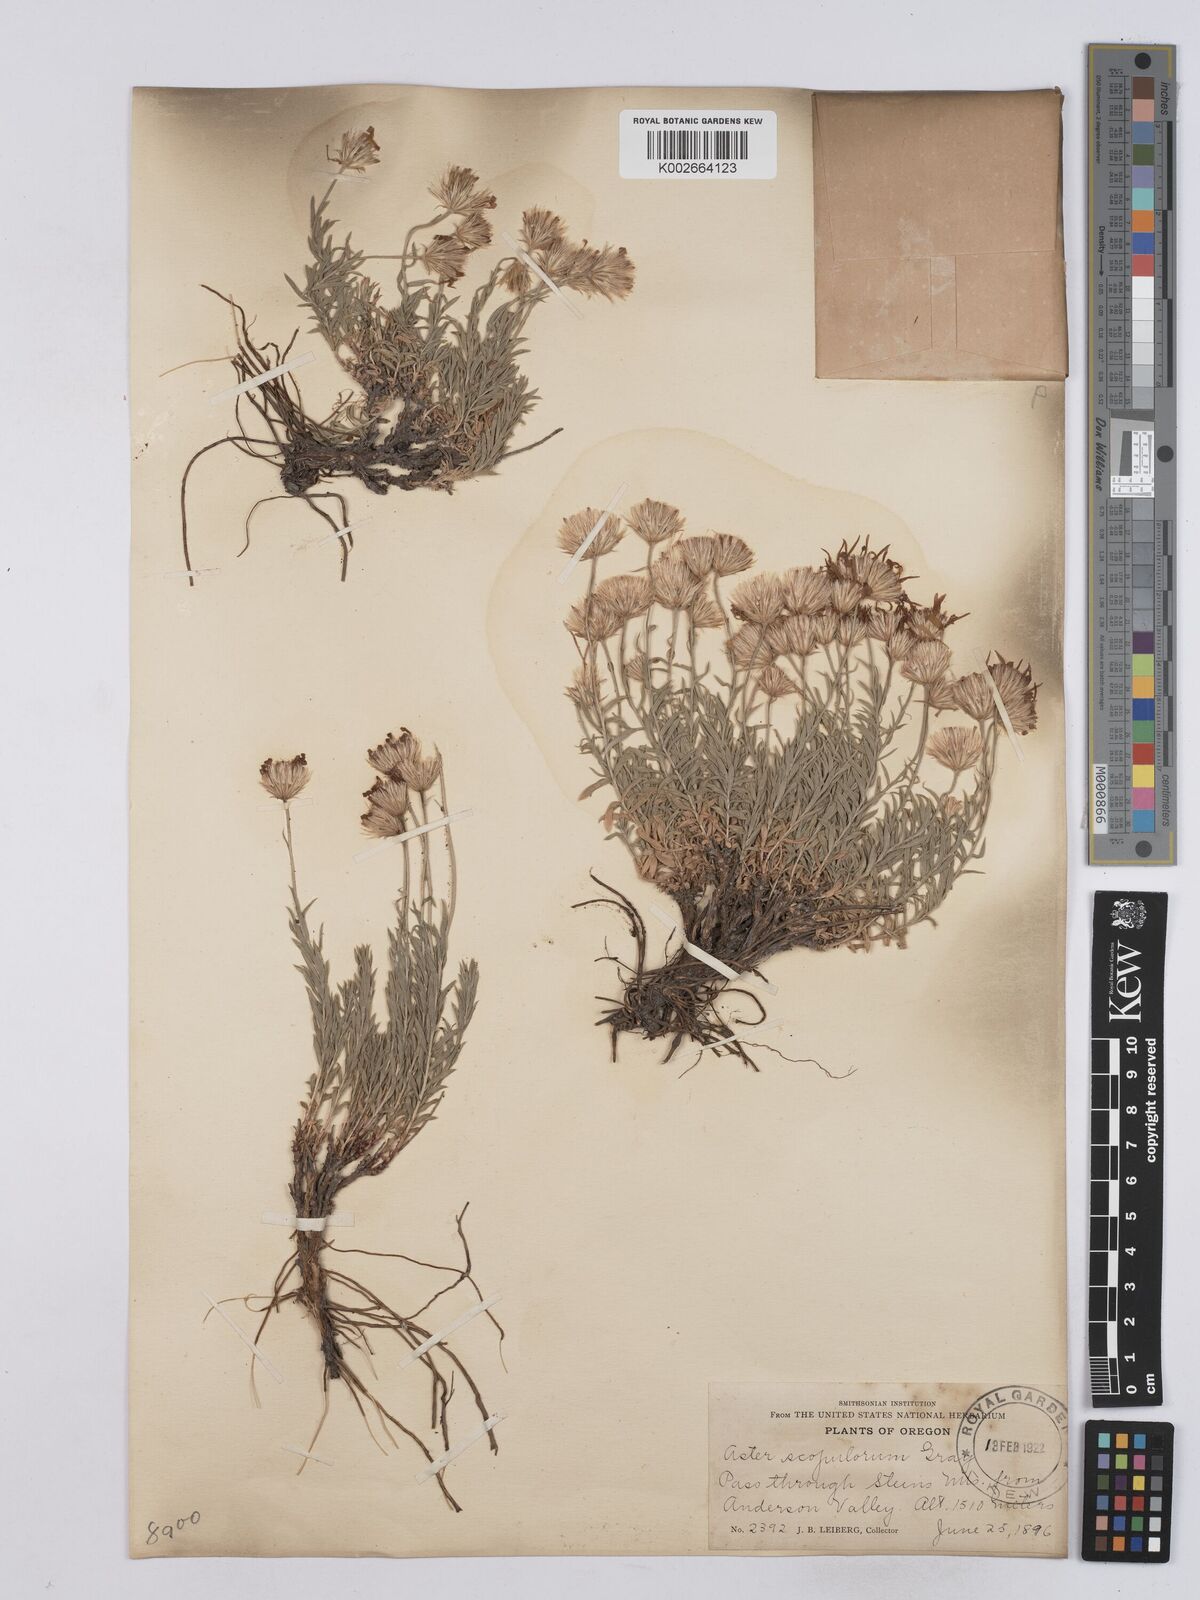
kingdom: Plantae
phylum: Tracheophyta
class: Magnoliopsida
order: Asterales
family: Asteraceae
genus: Ionactis
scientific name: Ionactis alpina
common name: Crag aster
